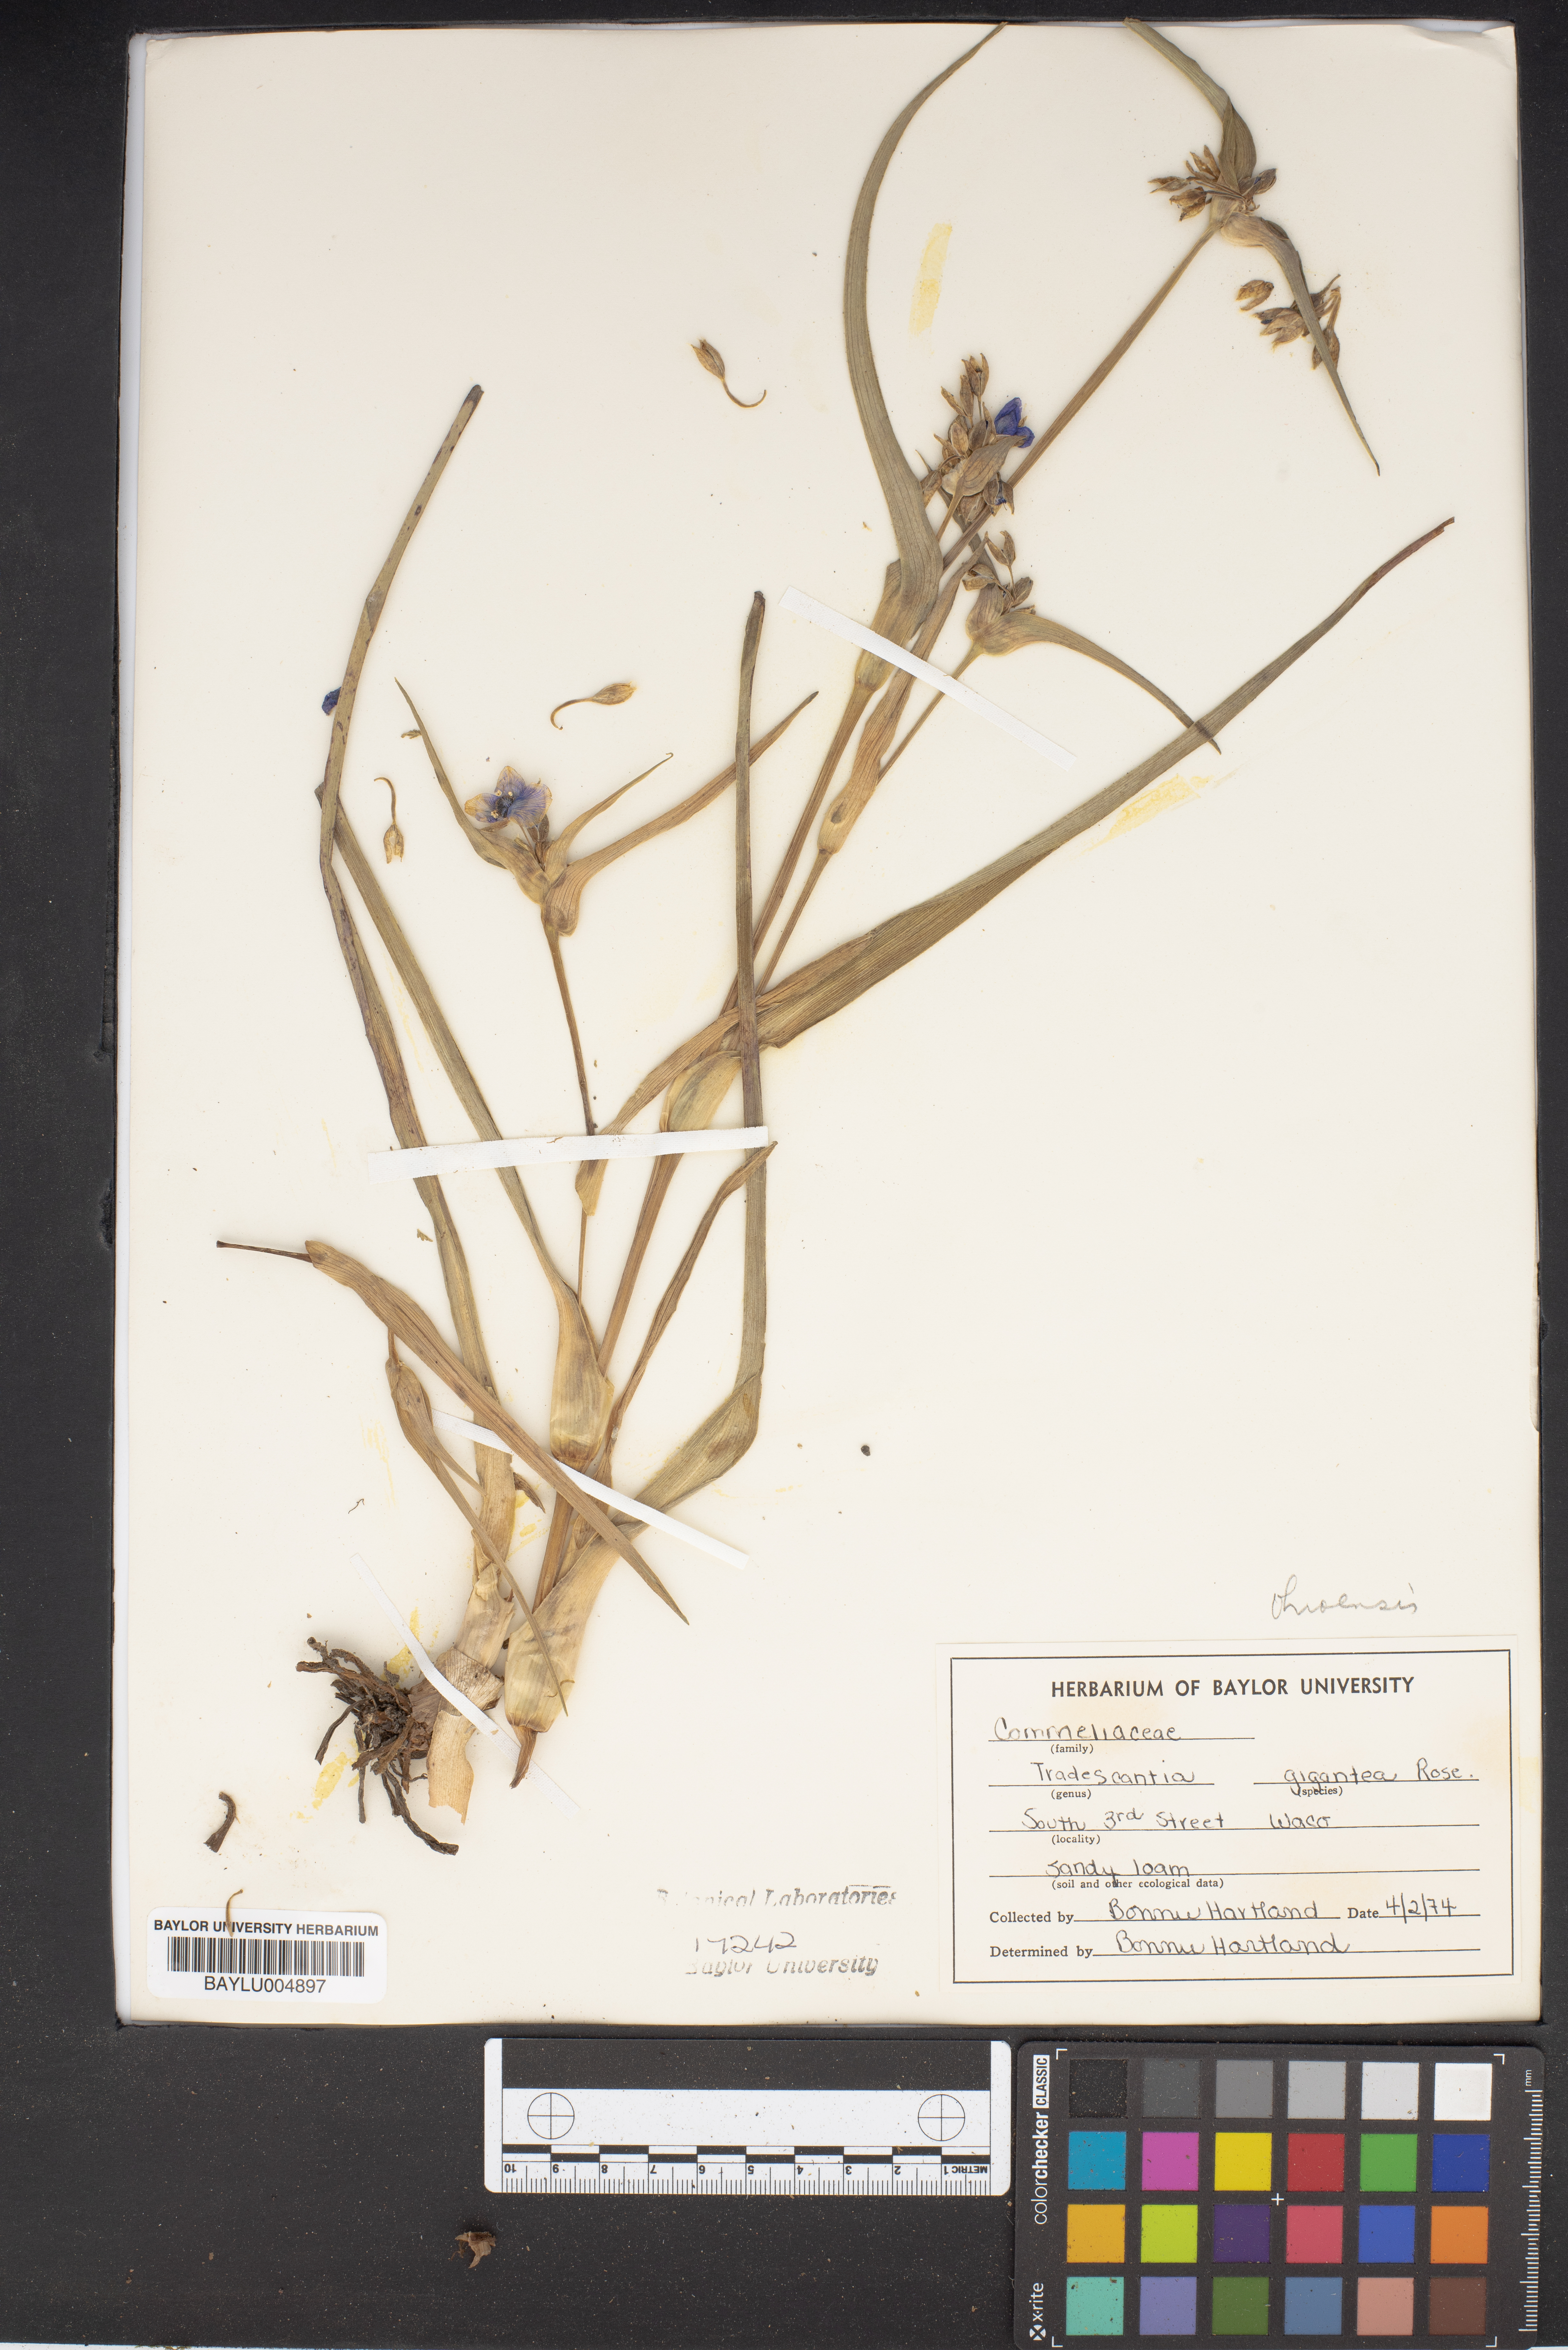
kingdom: Plantae
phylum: Tracheophyta
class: Liliopsida
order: Commelinales
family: Commelinaceae
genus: Tradescantia
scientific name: Tradescantia gigantea
